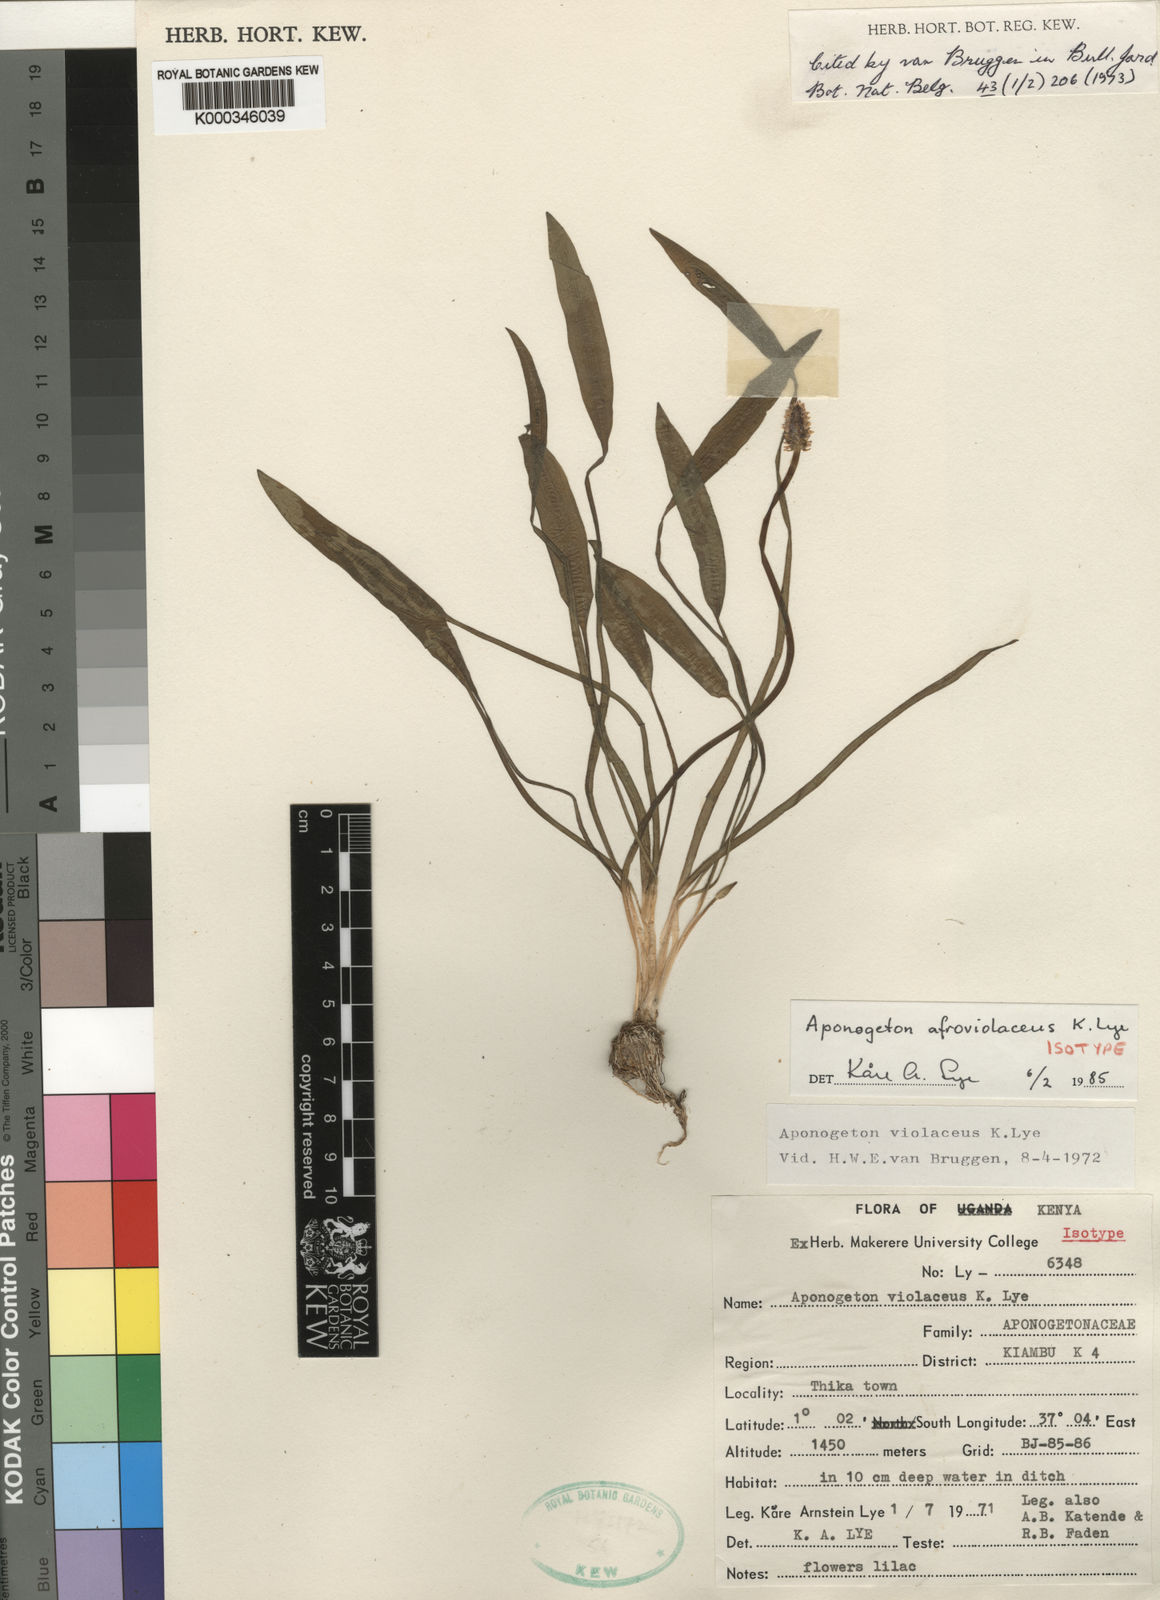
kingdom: Plantae
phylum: Tracheophyta
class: Liliopsida
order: Alismatales
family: Aponogetonaceae
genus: Aponogeton
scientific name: Aponogeton afroviolaceus
